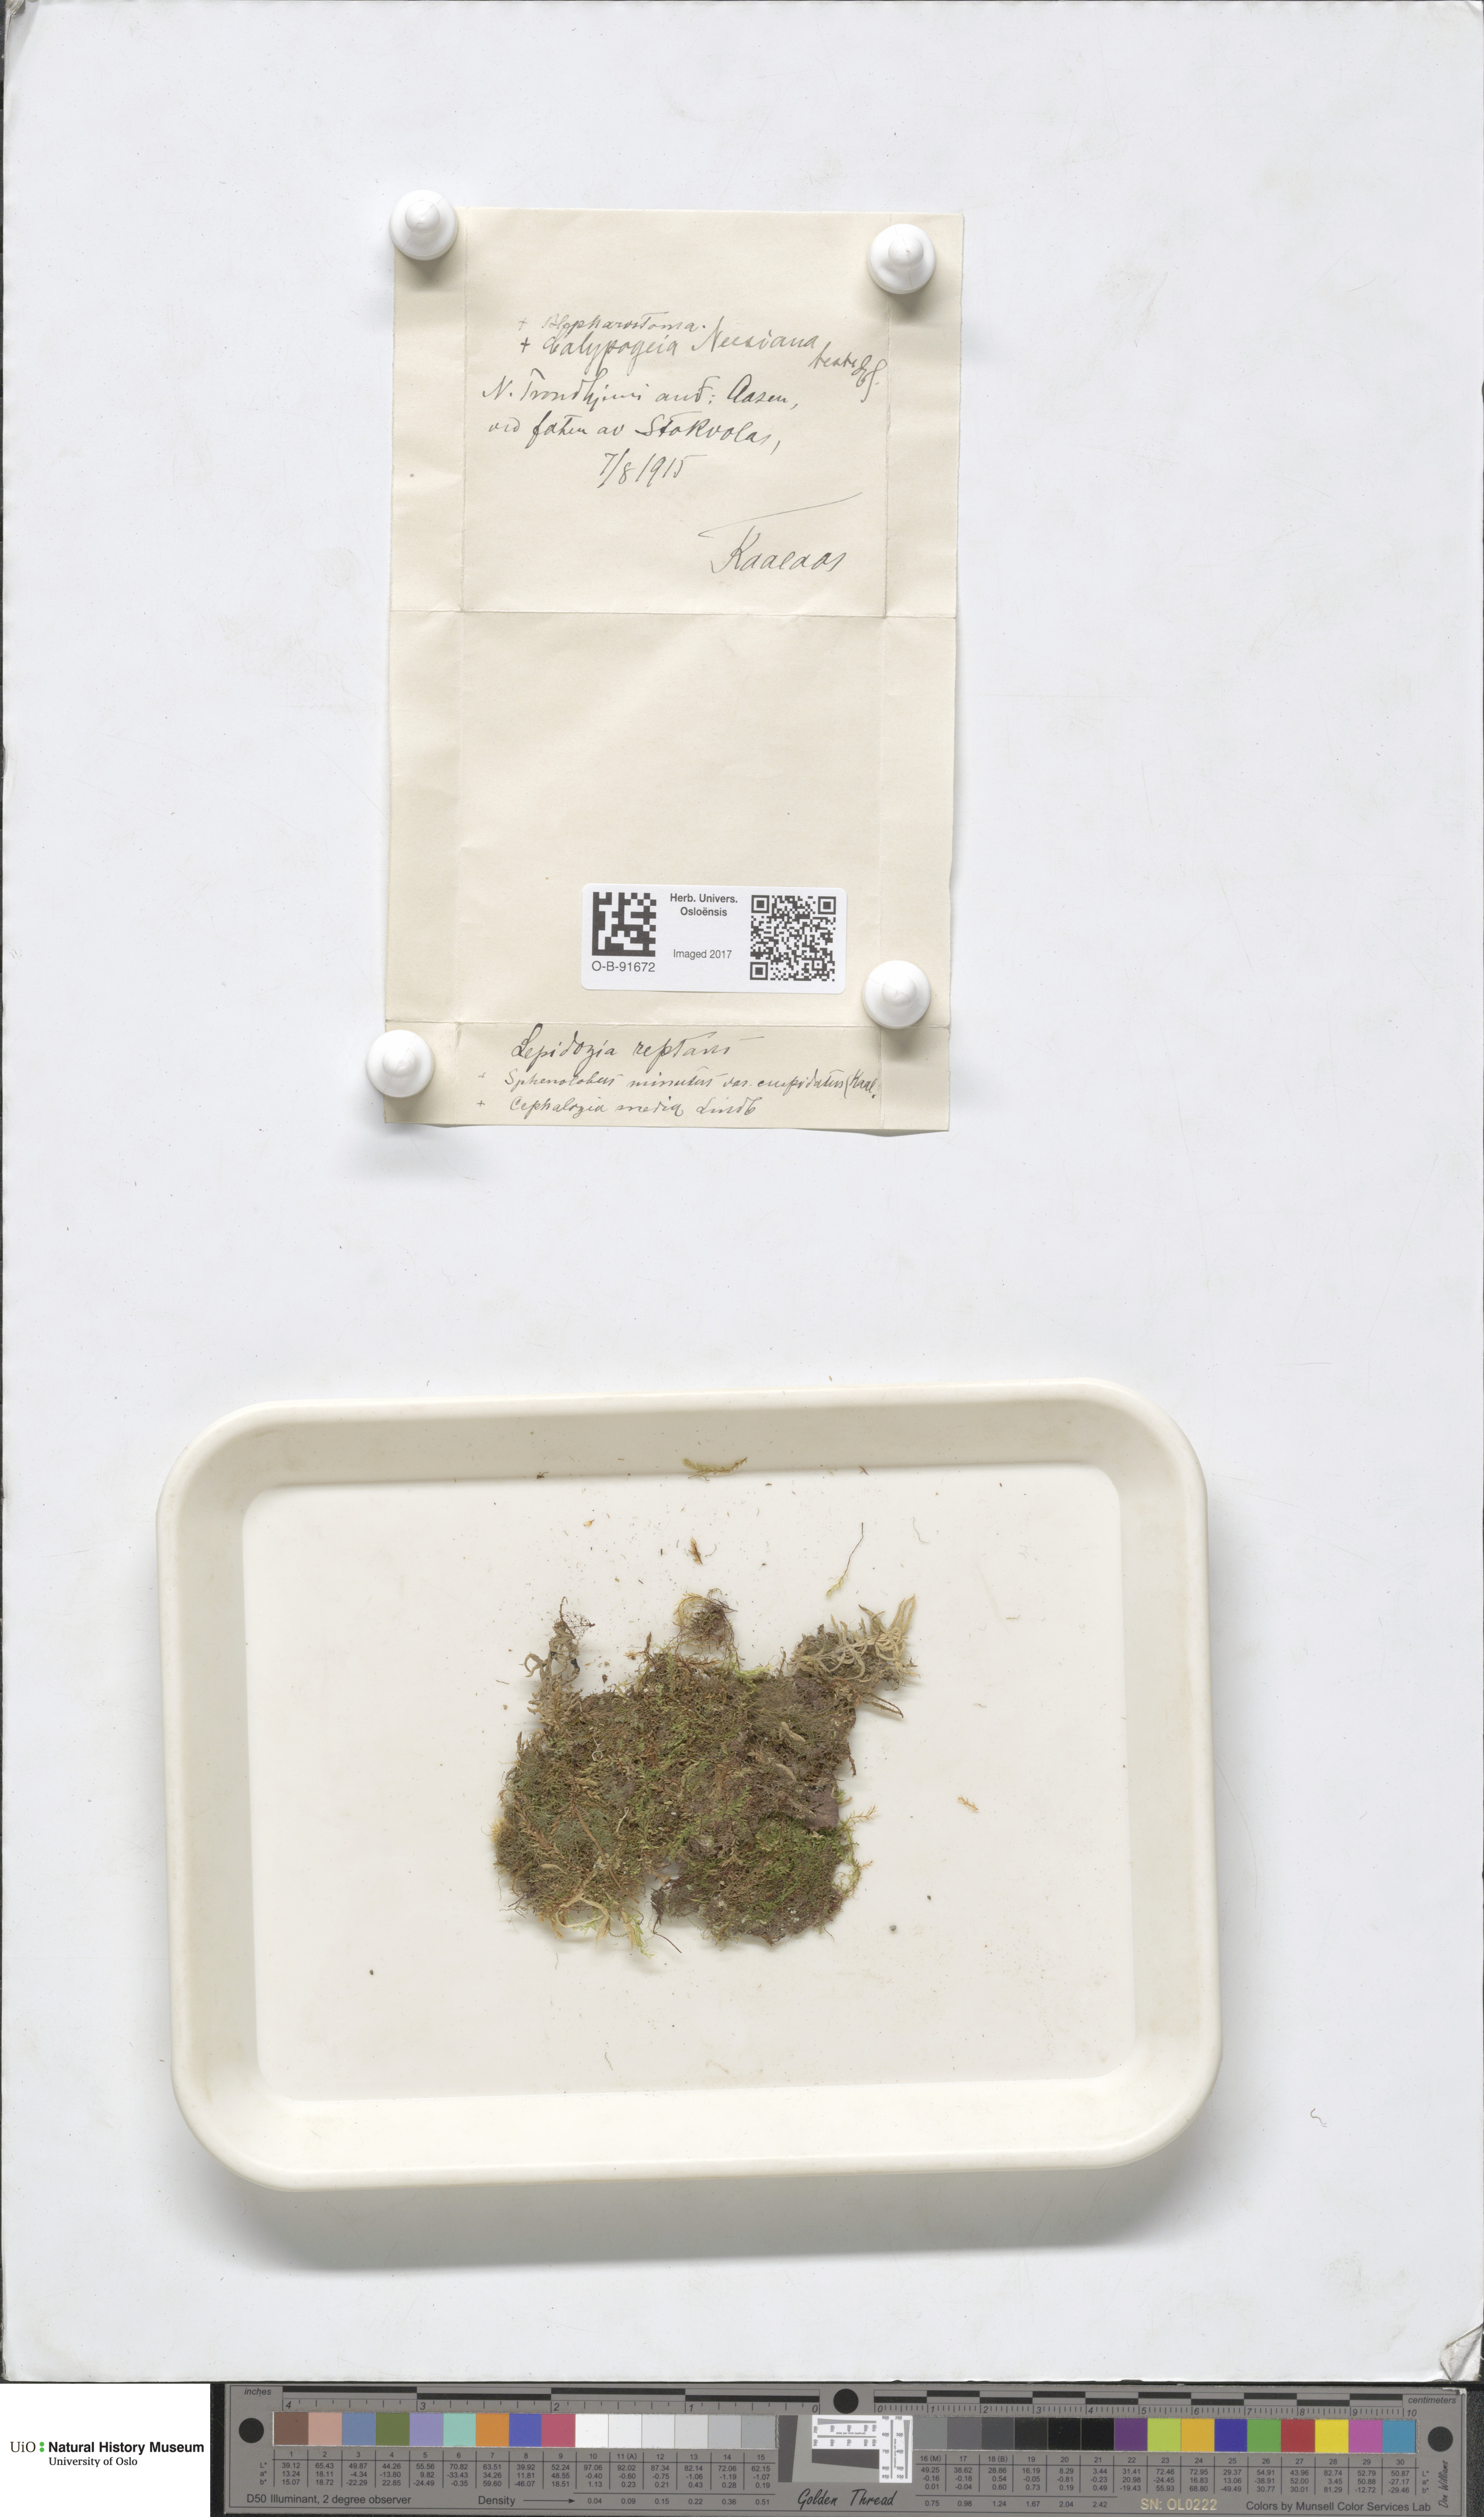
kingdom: Plantae
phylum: Marchantiophyta
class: Jungermanniopsida
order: Jungermanniales
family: Lepidoziaceae
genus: Lepidozia
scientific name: Lepidozia reptans
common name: Creeping fingerwort
